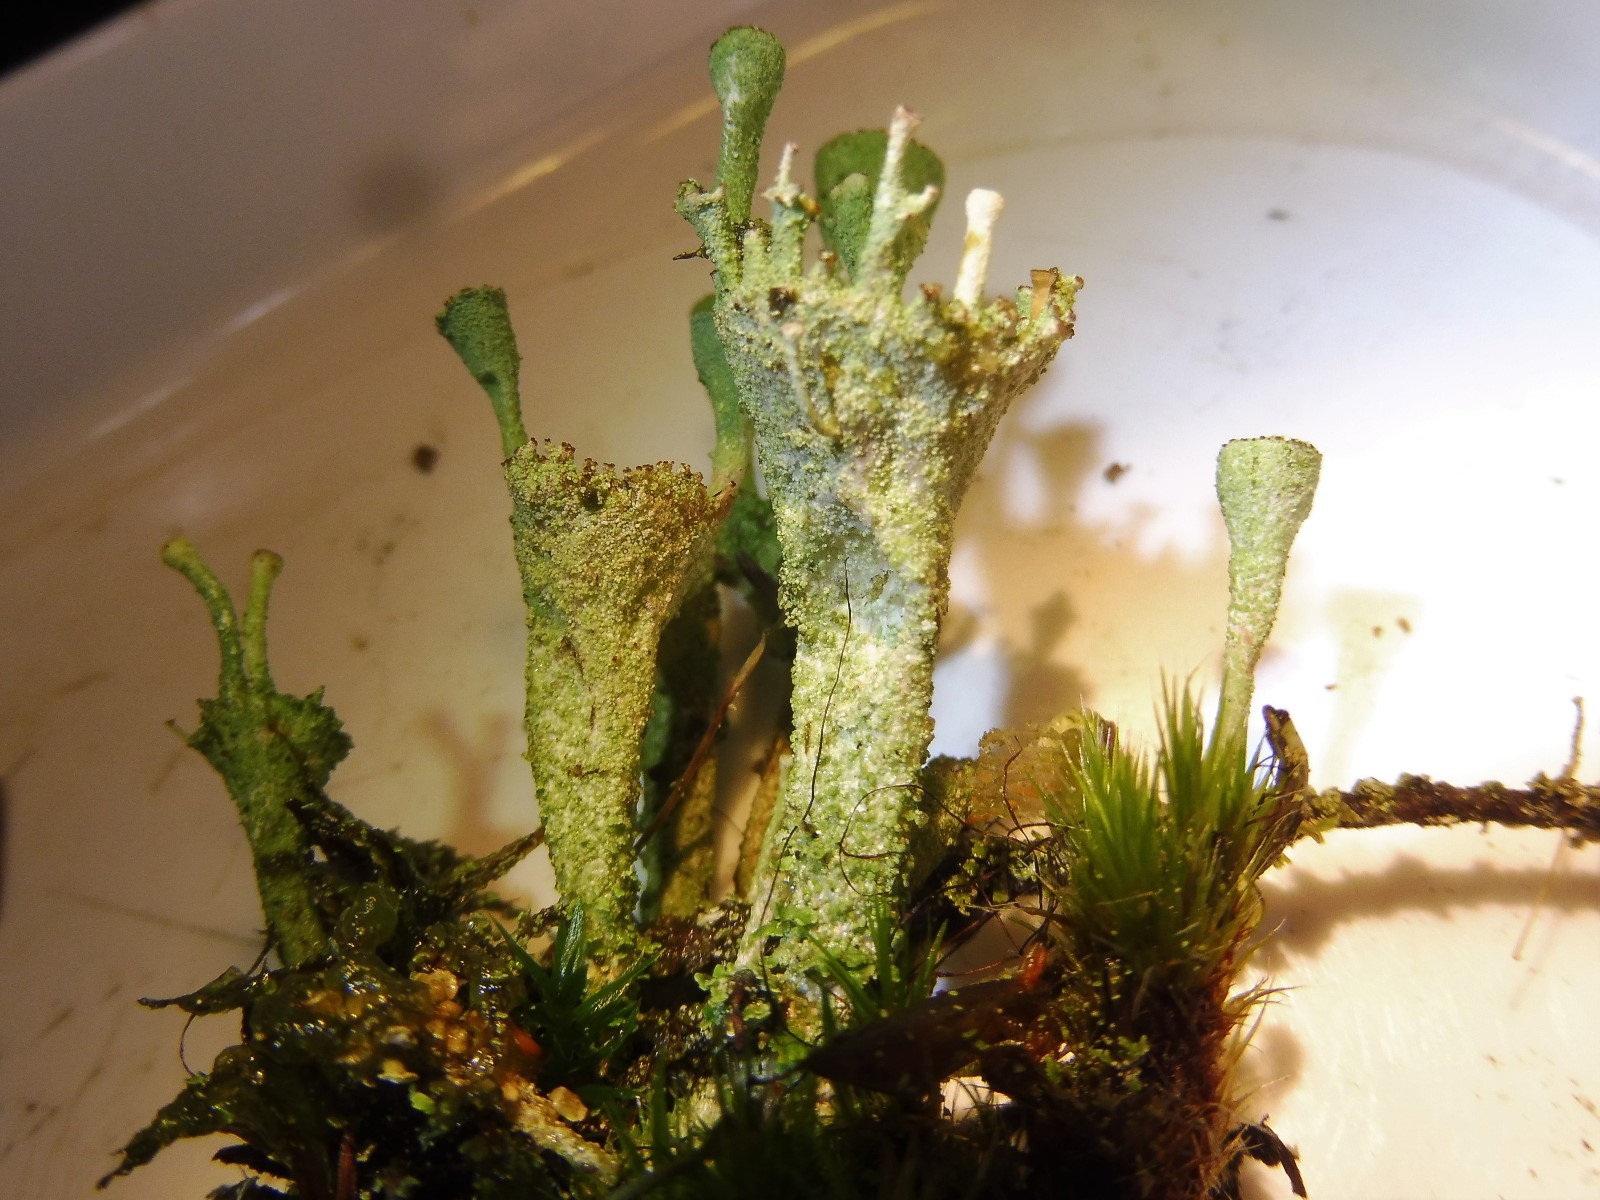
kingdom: Fungi
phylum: Ascomycota
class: Lecanoromycetes
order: Lecanorales
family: Cladoniaceae
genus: Cladonia
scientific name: Cladonia
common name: brungrøn bægerlav
